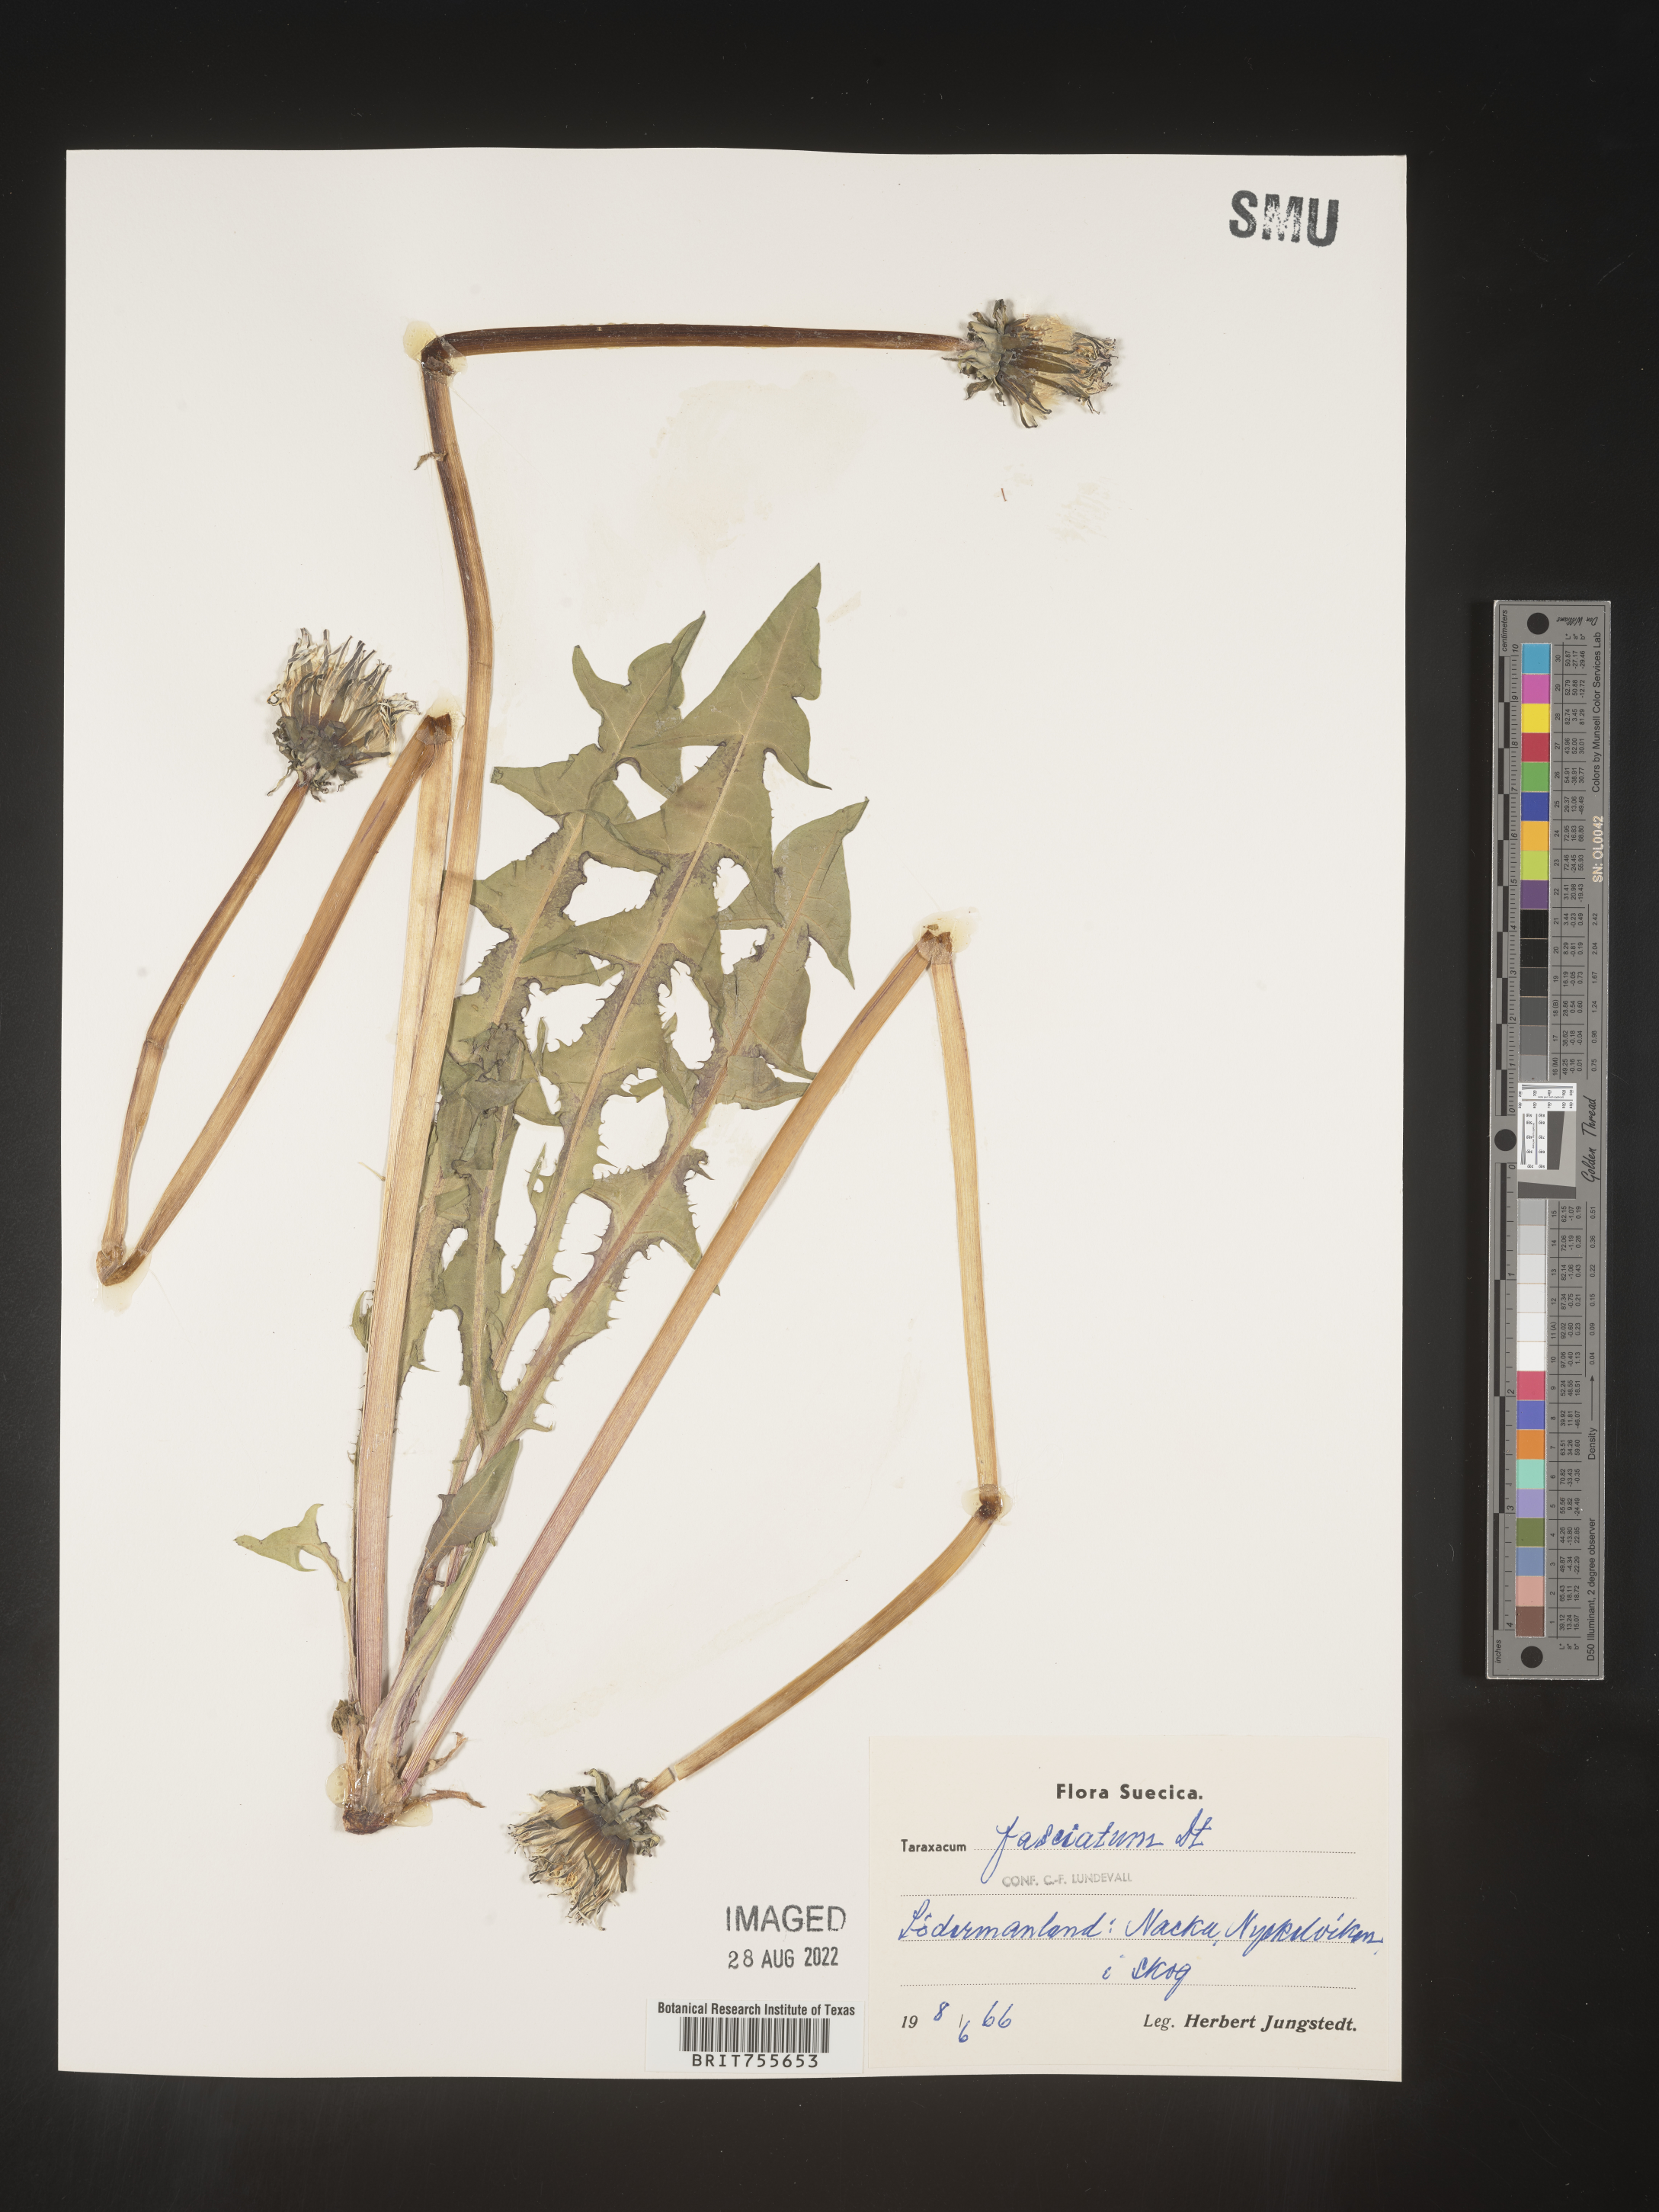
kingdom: Plantae
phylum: Tracheophyta
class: Magnoliopsida
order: Asterales
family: Asteraceae
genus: Taraxacum
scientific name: Taraxacum
